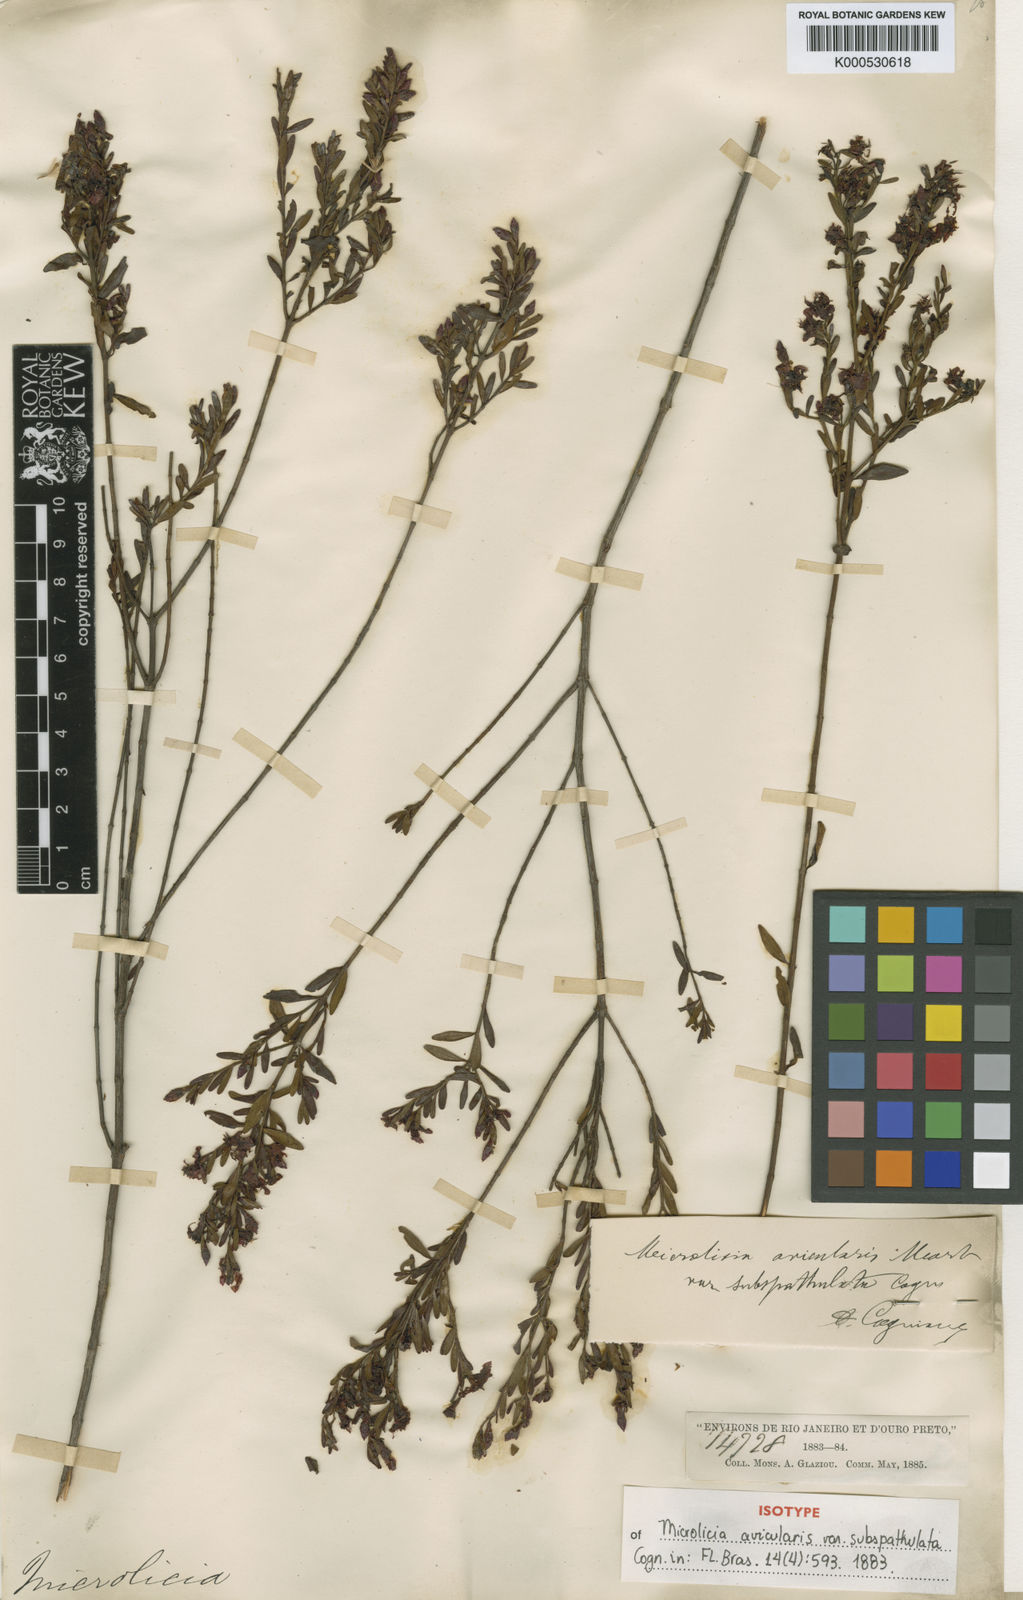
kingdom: Plantae
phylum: Tracheophyta
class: Magnoliopsida
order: Myrtales
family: Melastomataceae
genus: Microlicia
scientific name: Microlicia avicularis
